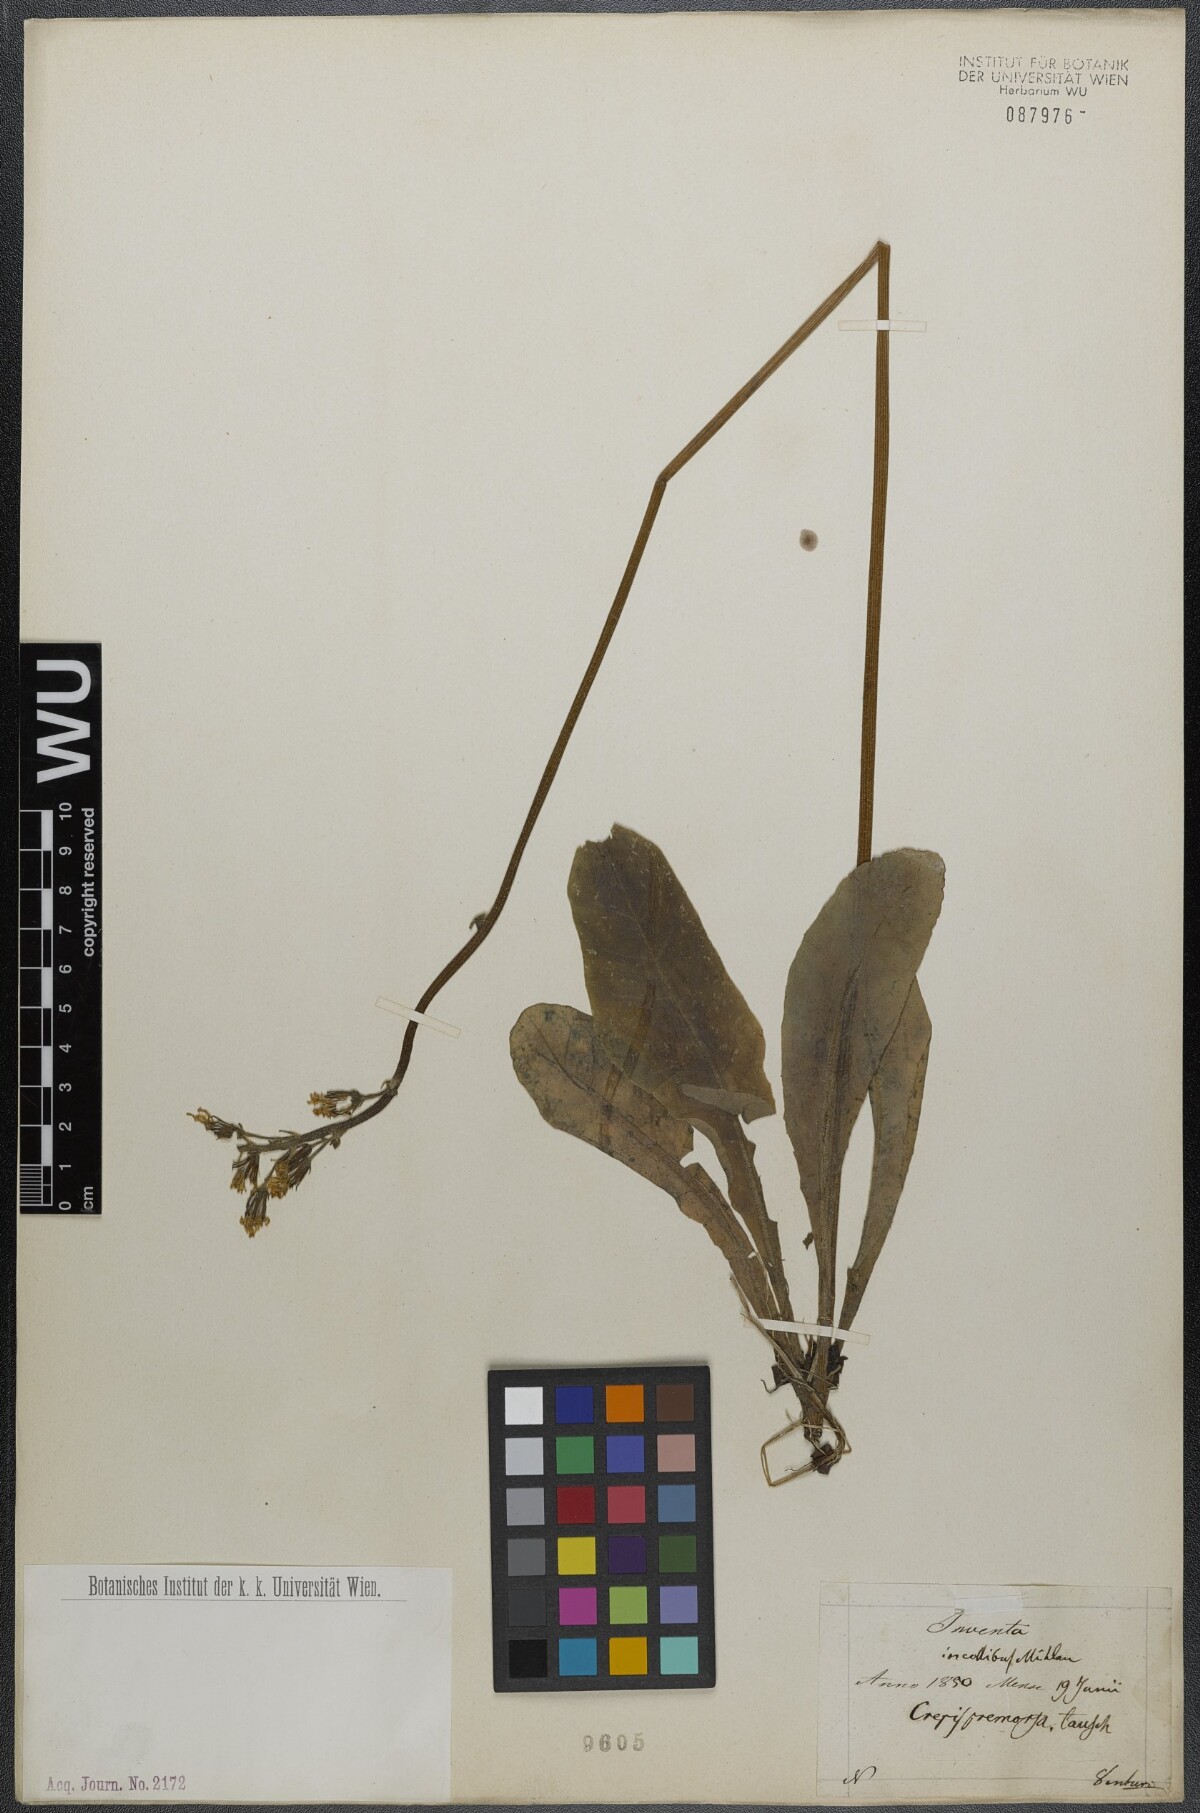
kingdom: Plantae
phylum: Tracheophyta
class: Magnoliopsida
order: Asterales
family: Asteraceae
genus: Crepis
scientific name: Crepis praemorsa
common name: Leafless hawk's-beard
